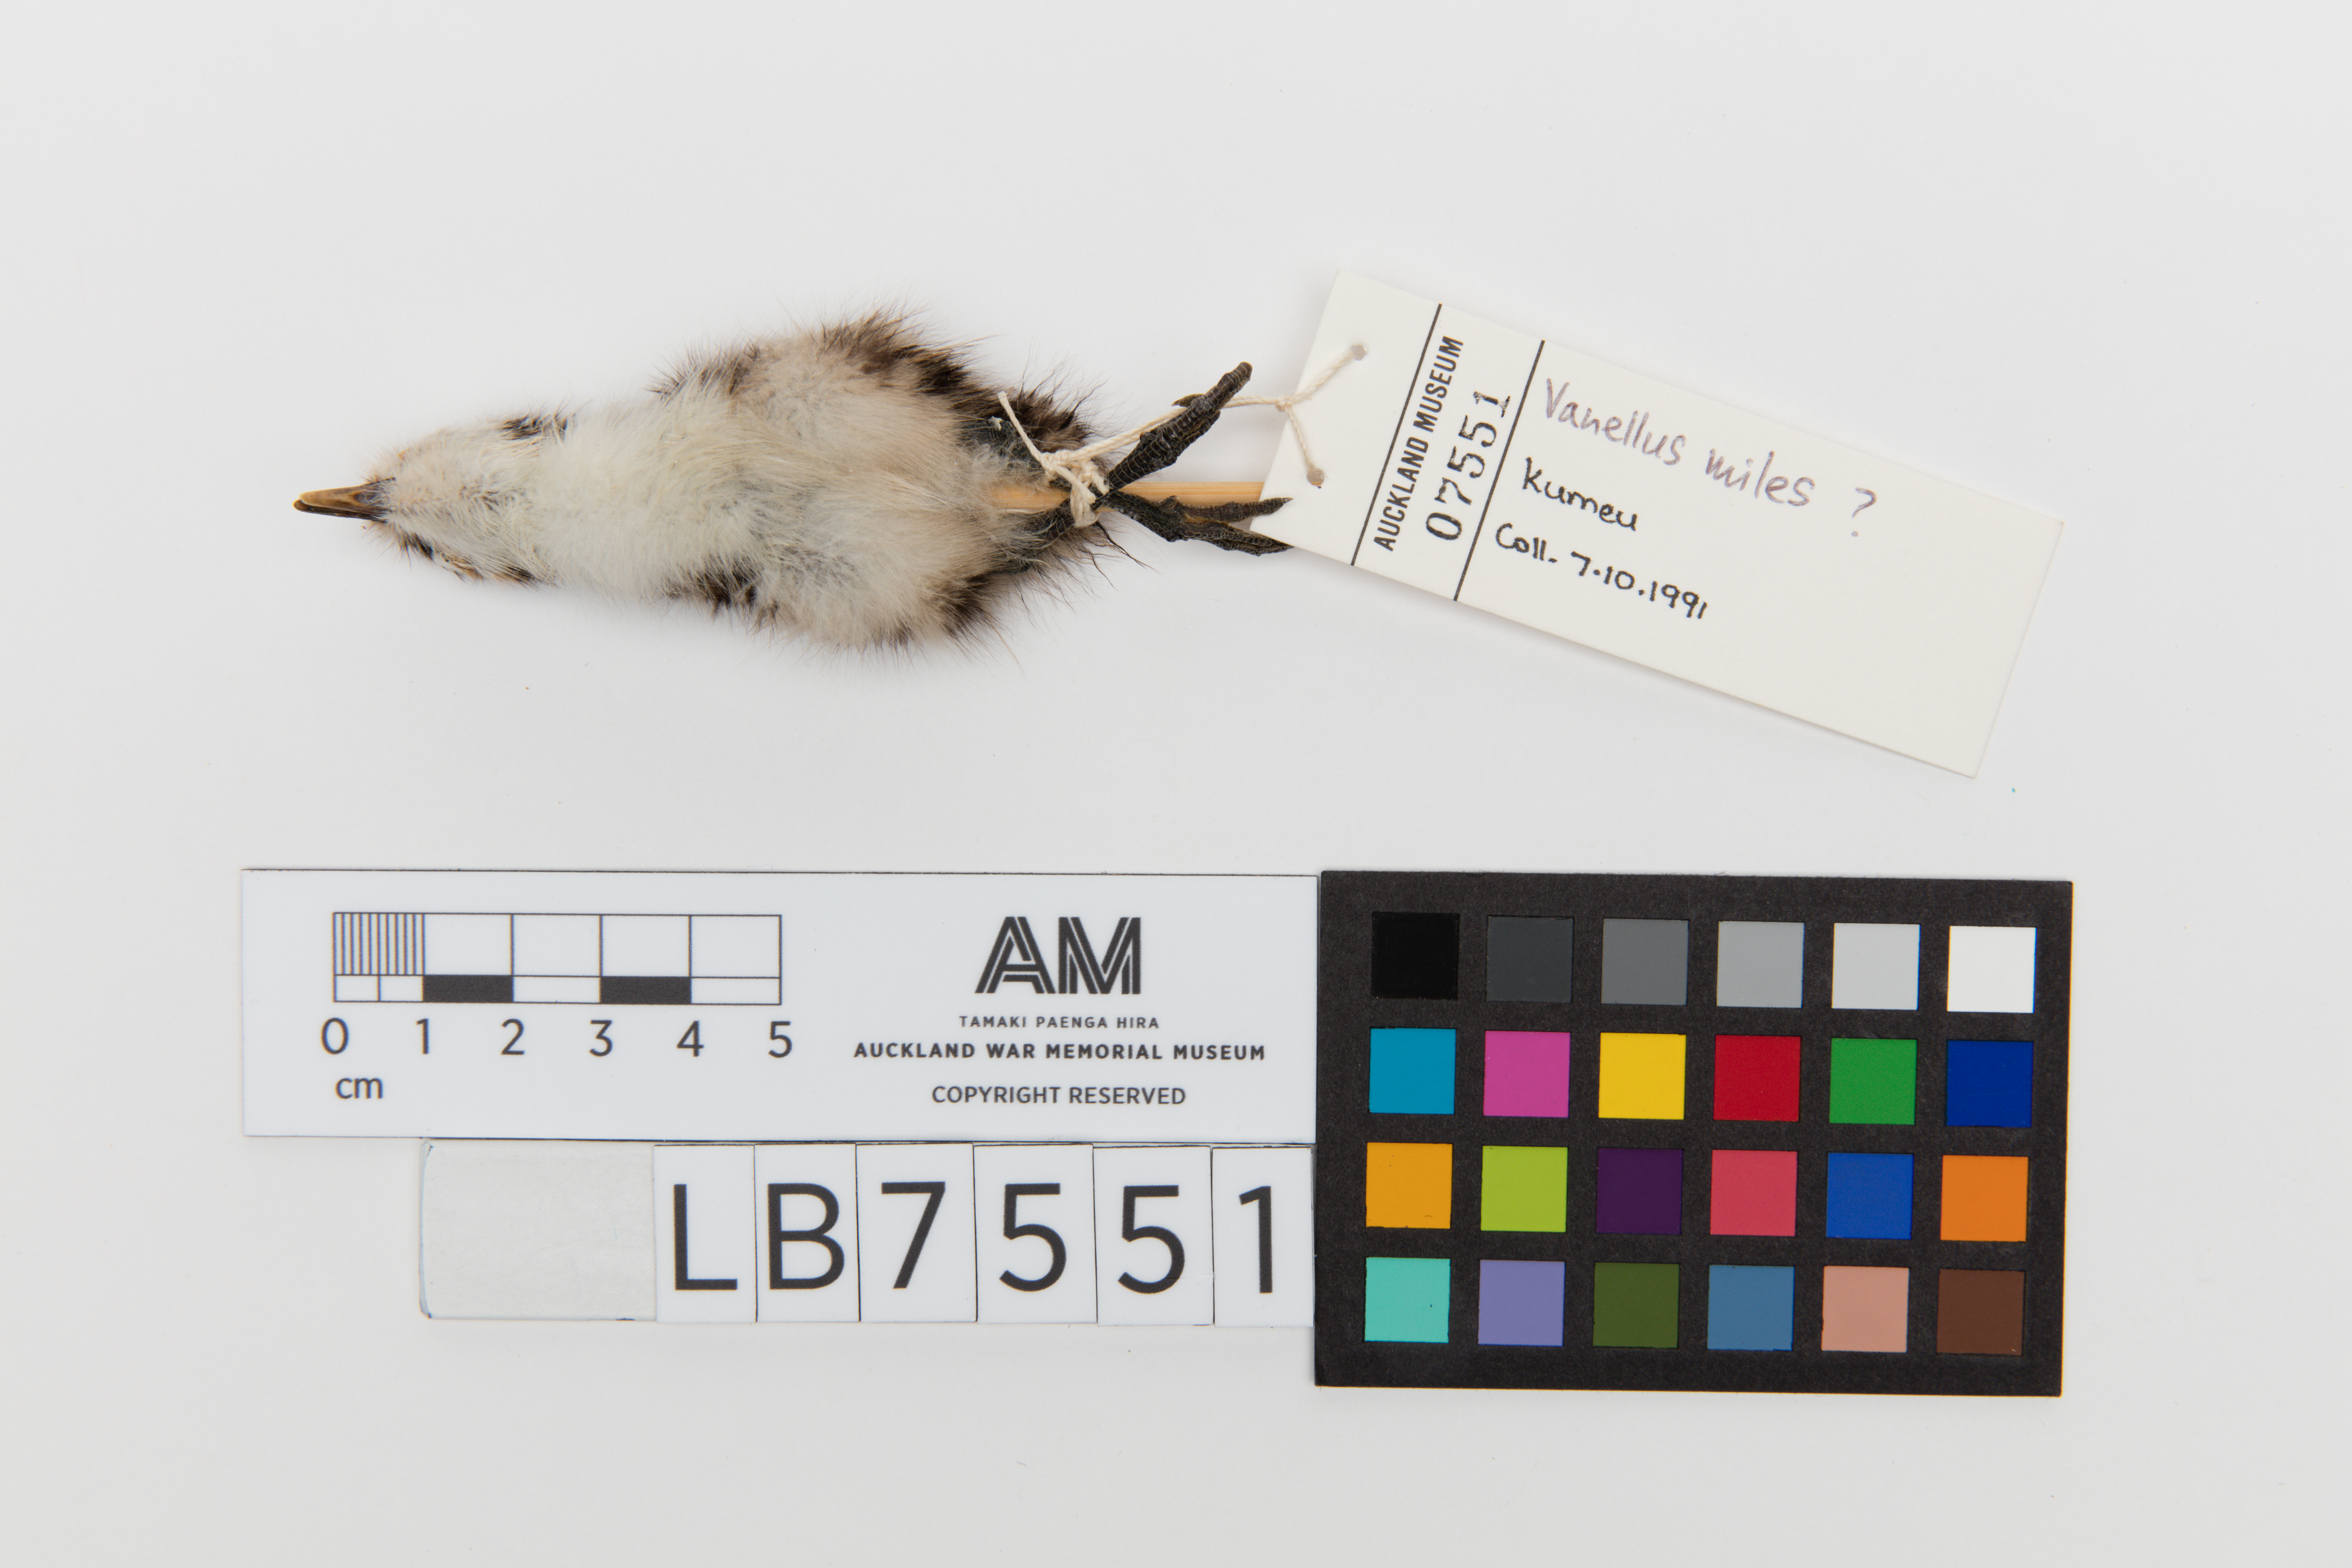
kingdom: Animalia
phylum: Chordata
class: Aves
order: Charadriiformes
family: Charadriidae
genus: Vanellus
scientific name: Vanellus miles
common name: Masked lapwing
